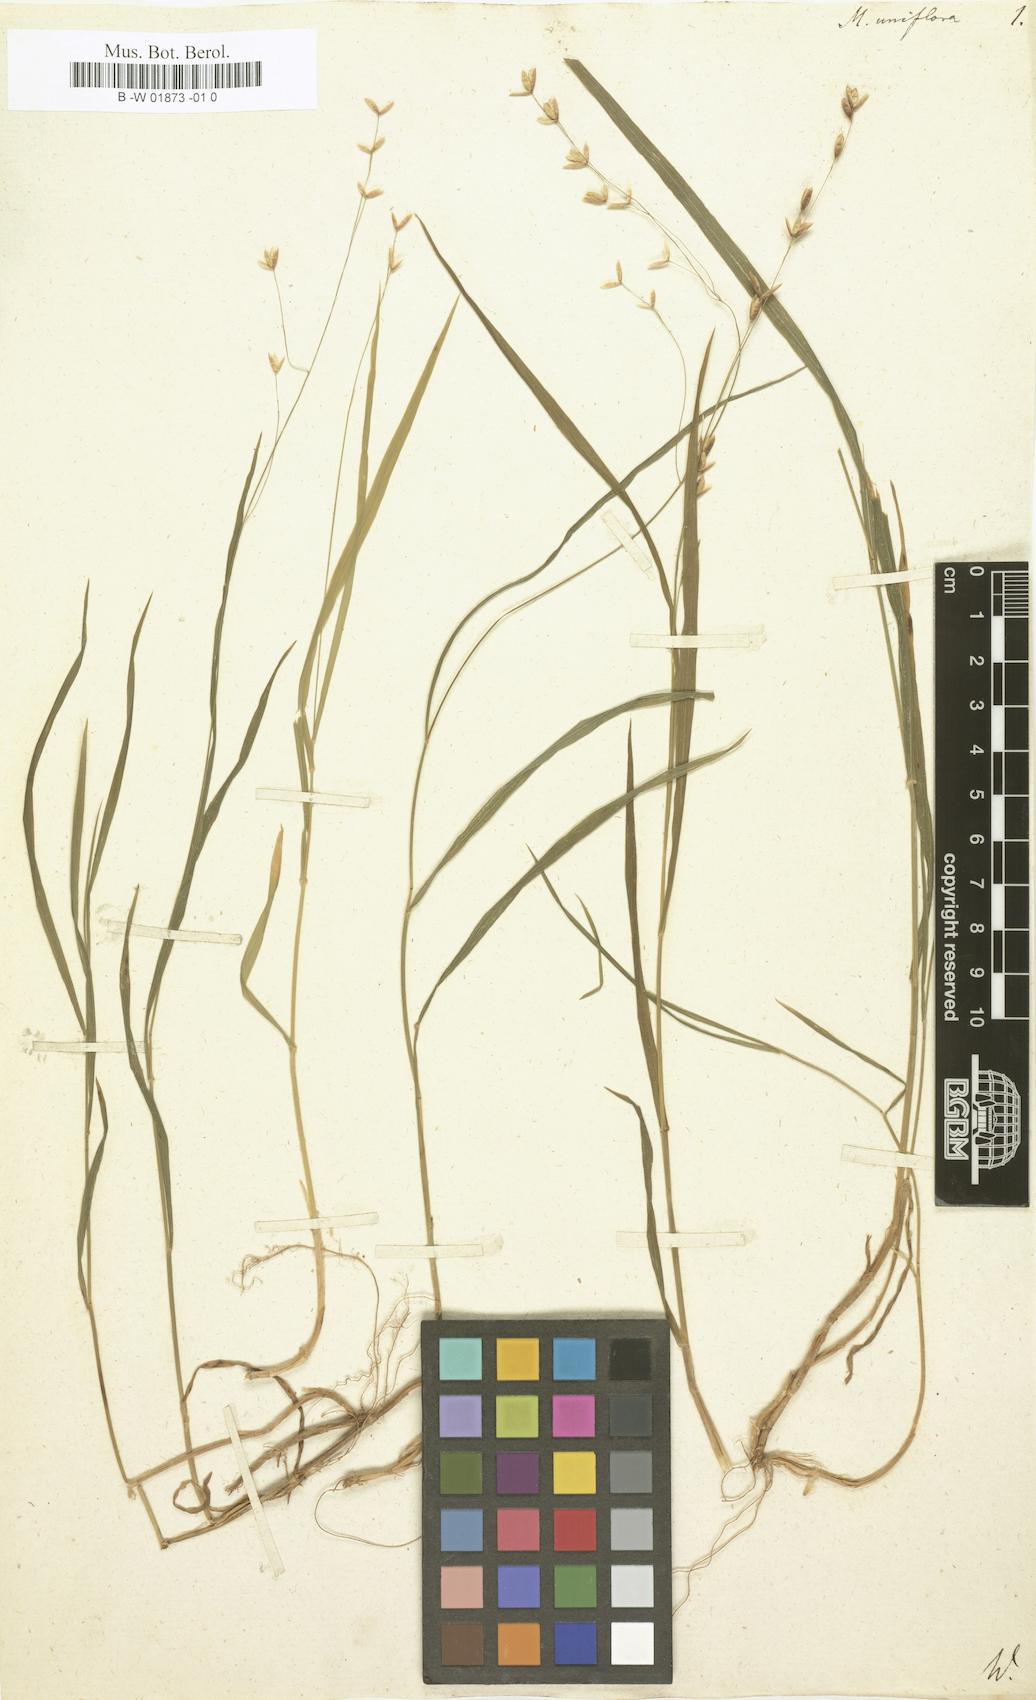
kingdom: Plantae
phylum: Tracheophyta
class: Liliopsida
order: Poales
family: Poaceae
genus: Melica
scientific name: Melica uniflora
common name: Wood melick
